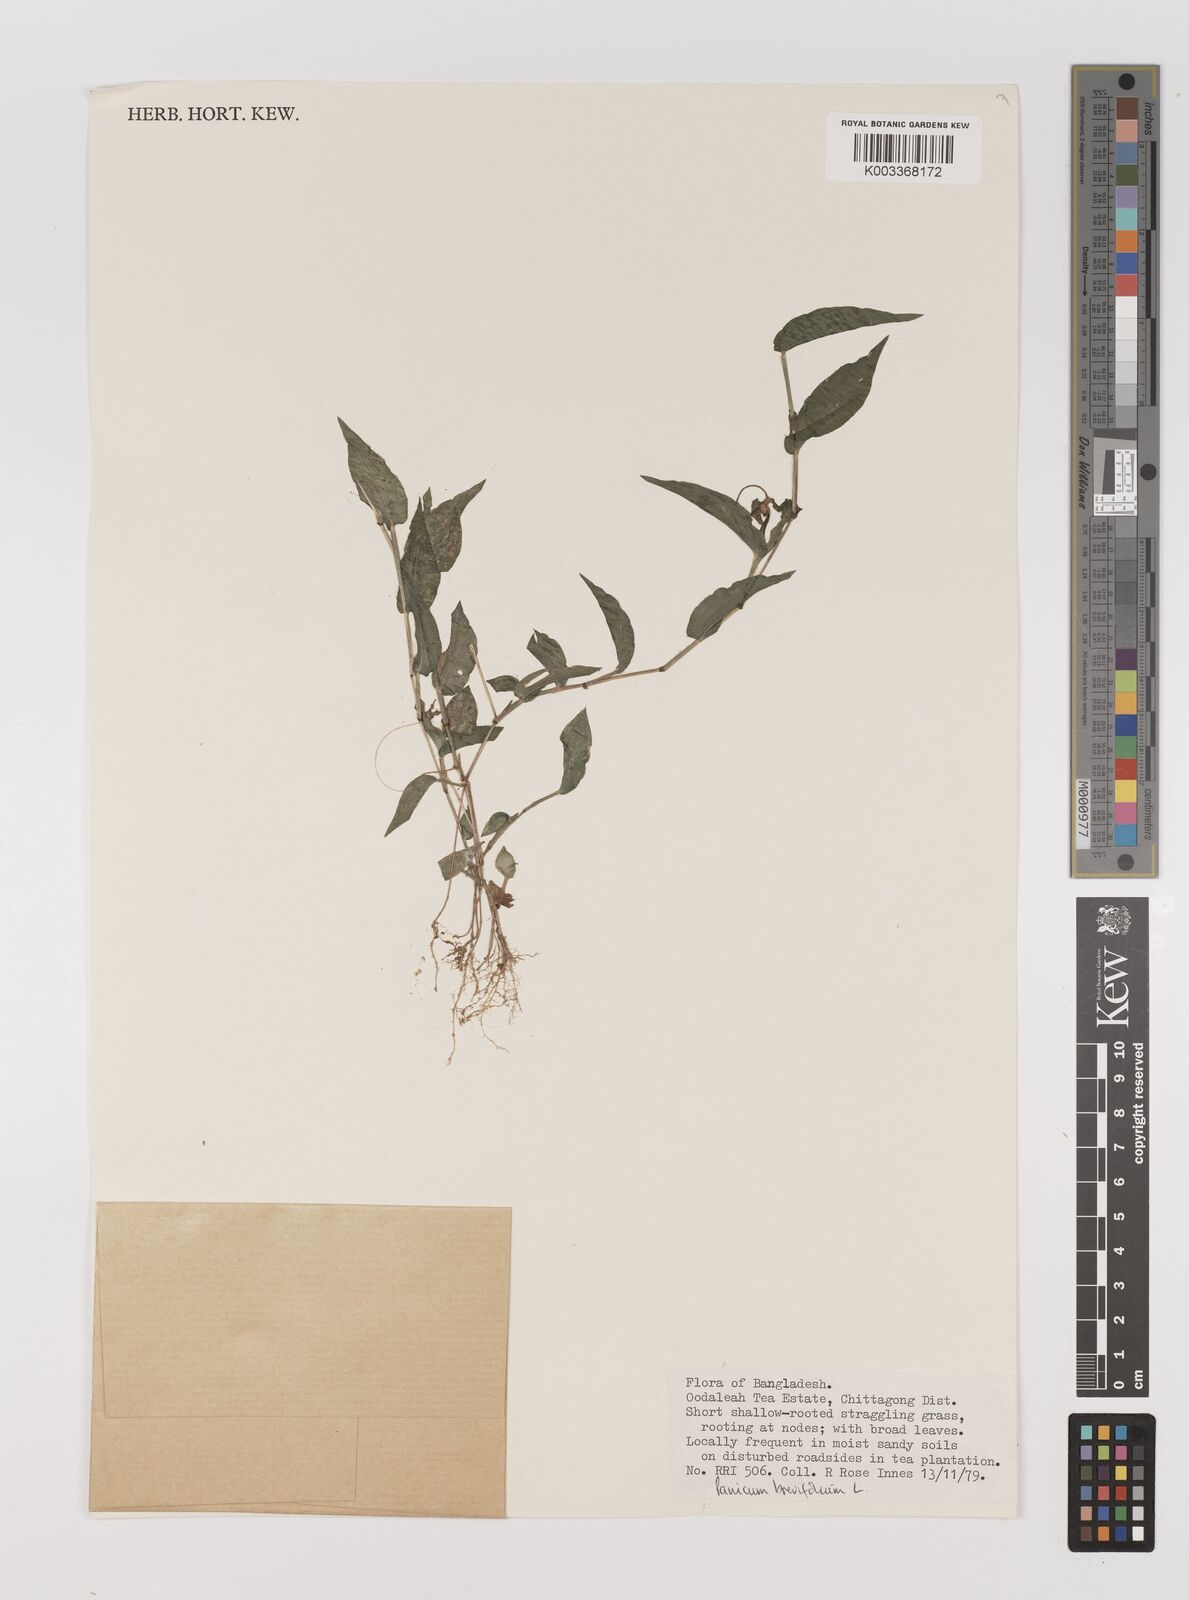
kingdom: Plantae
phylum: Tracheophyta
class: Liliopsida
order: Poales
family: Poaceae
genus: Panicum
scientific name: Panicum brevifolium
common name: Shortleaf panic grass
